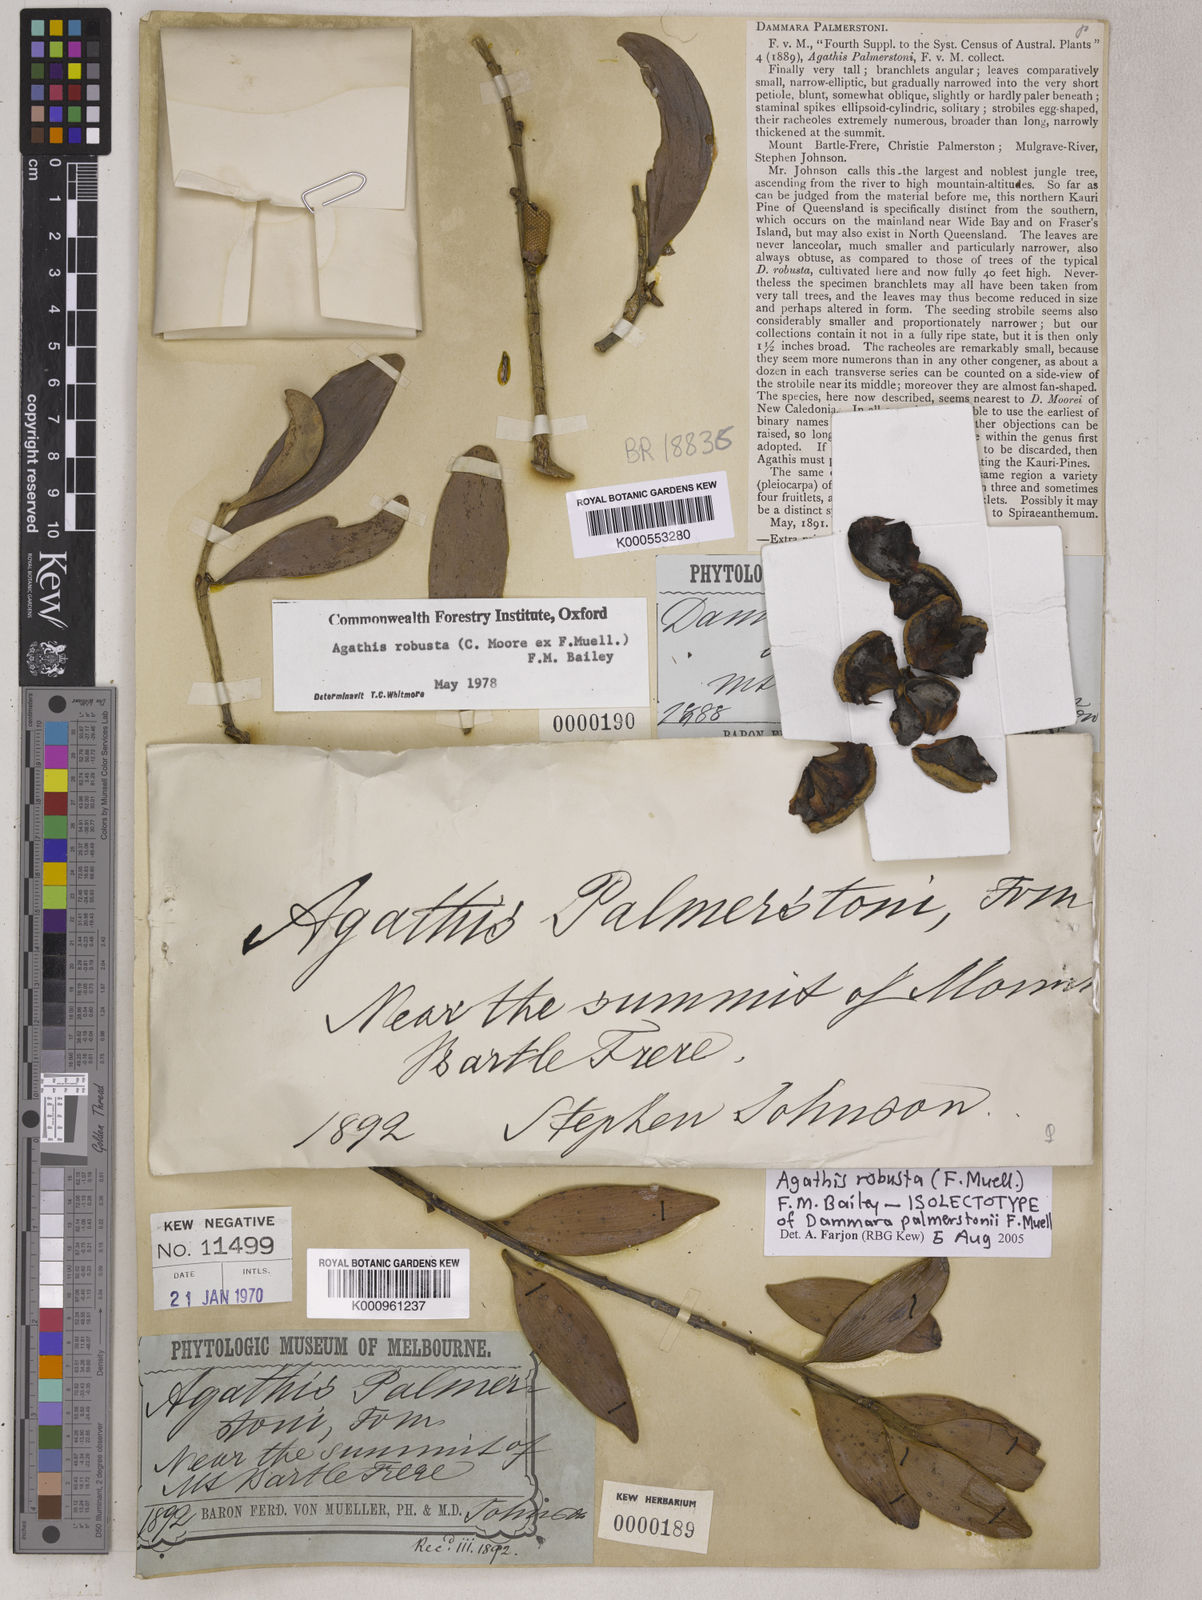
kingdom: Plantae
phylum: Tracheophyta
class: Pinopsida
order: Pinales
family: Araucariaceae
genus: Agathis
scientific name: Agathis robusta
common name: Australian-kauri
